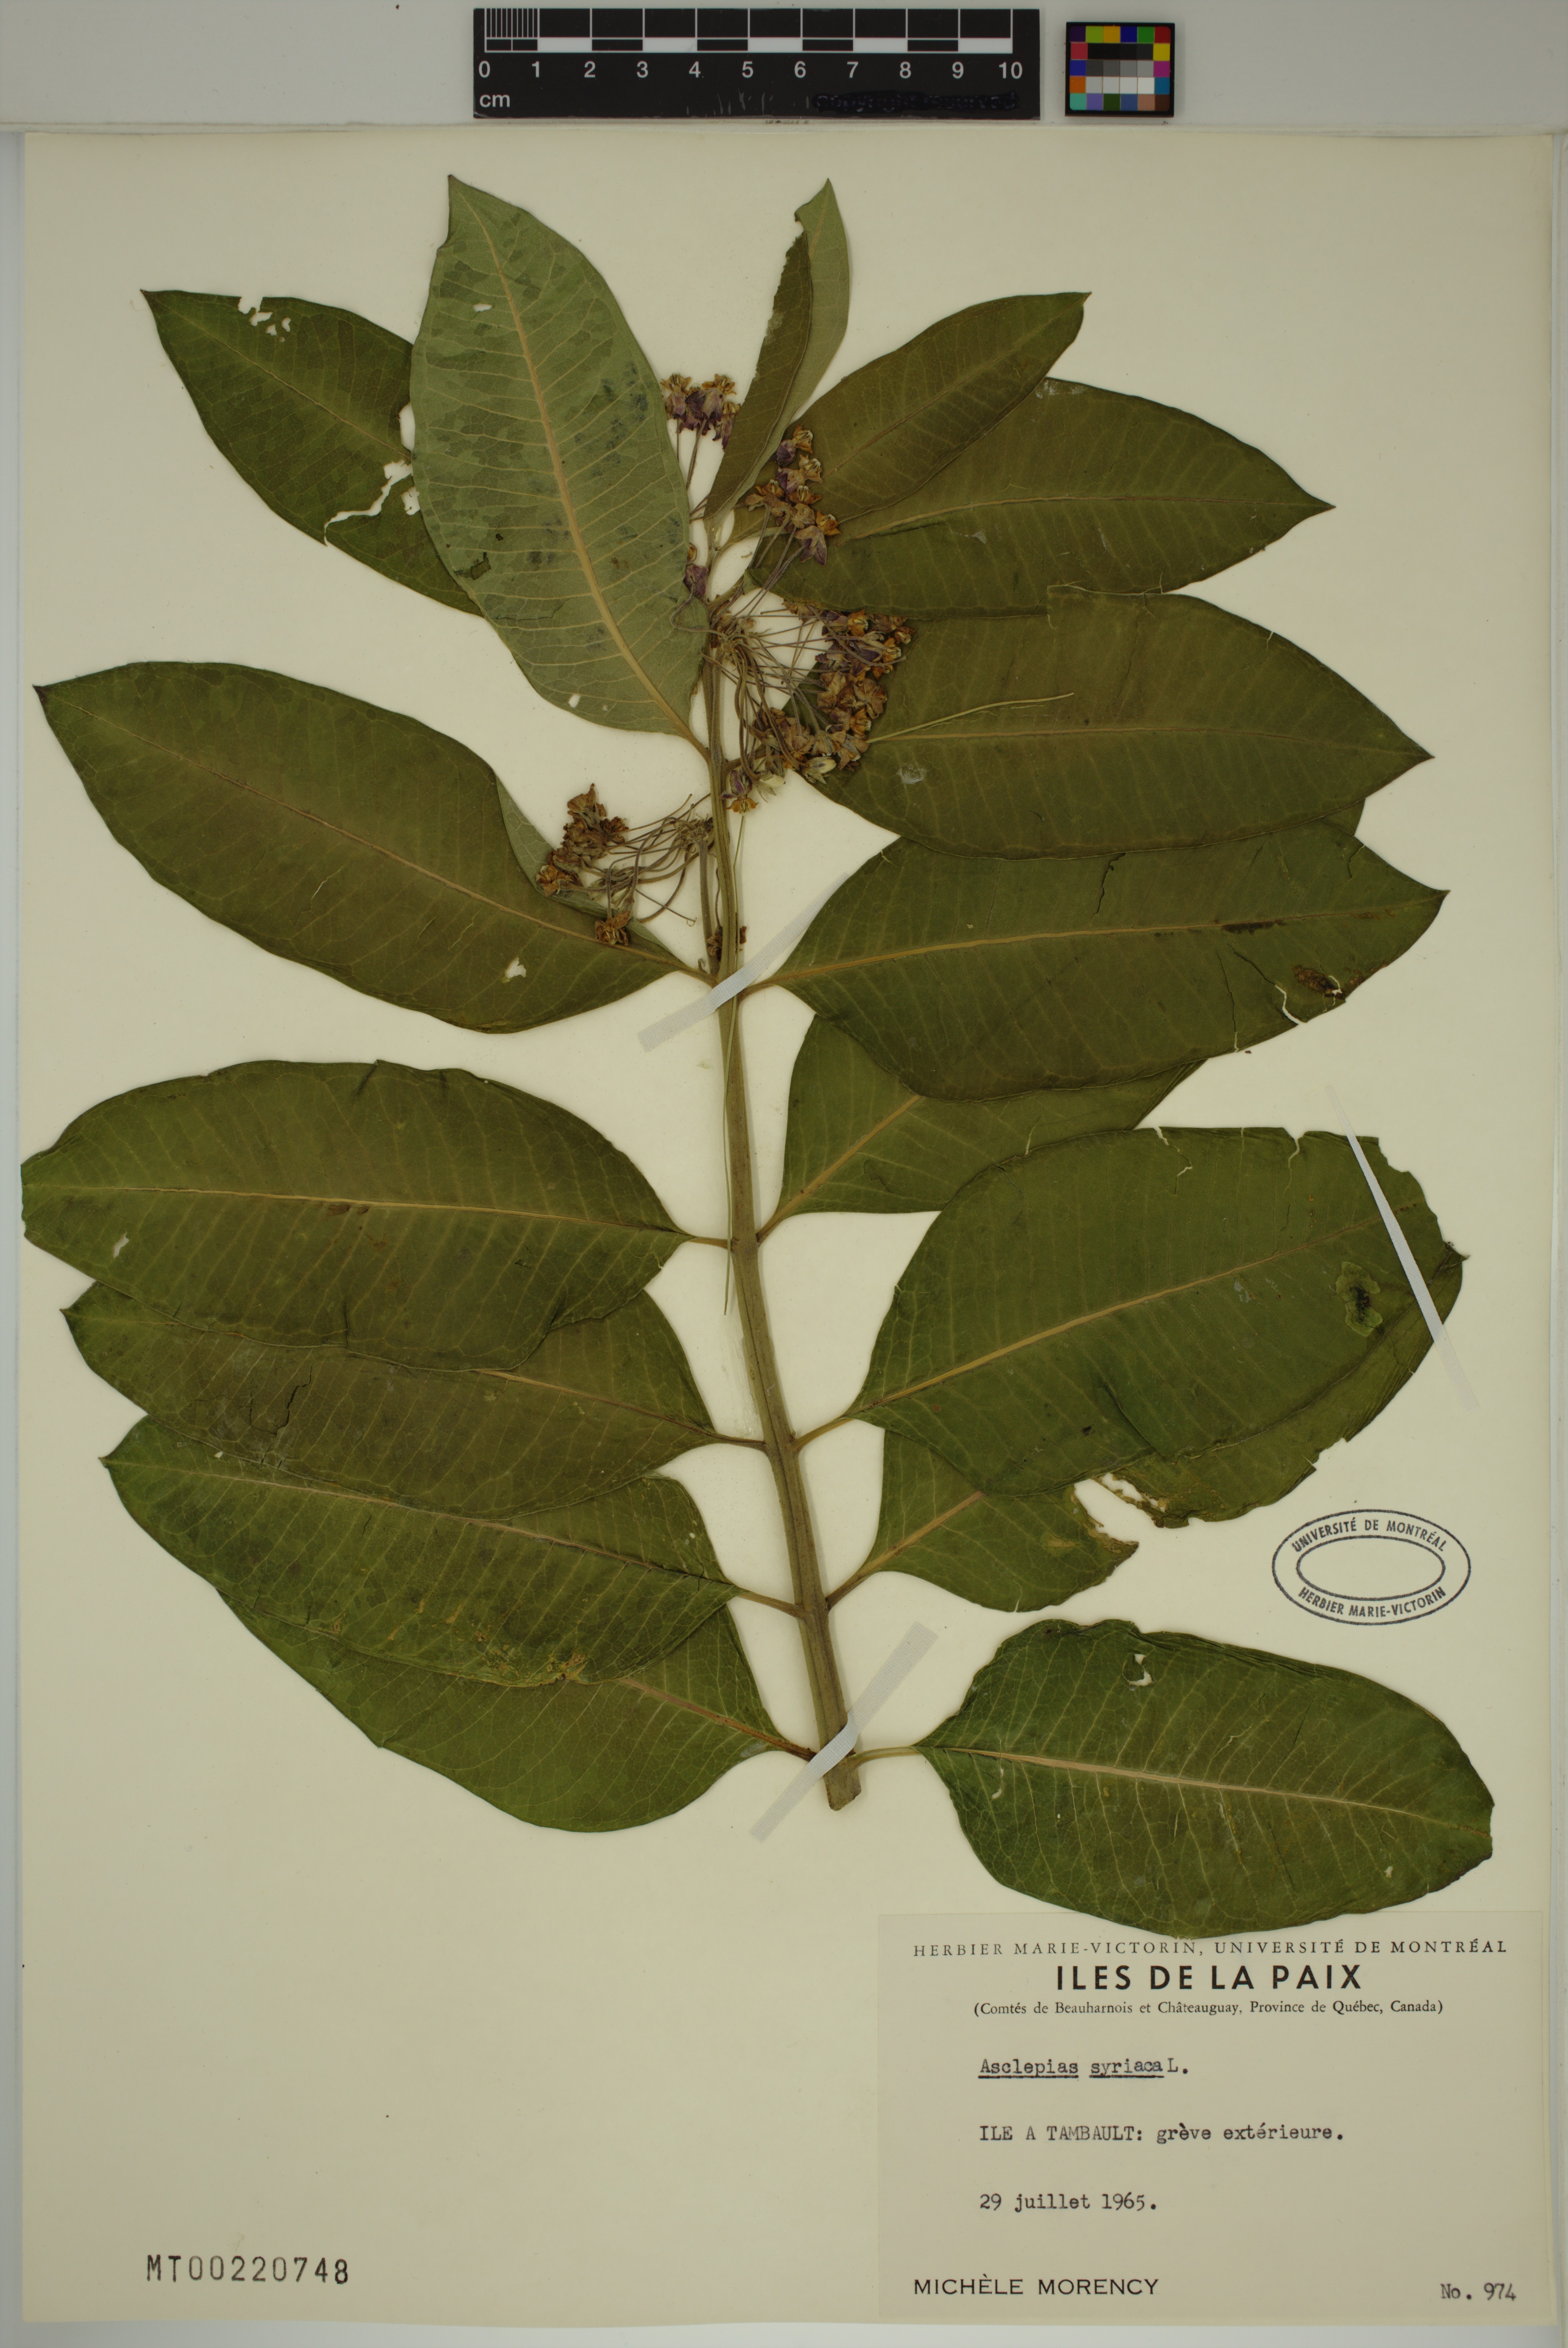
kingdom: Plantae
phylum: Tracheophyta
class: Magnoliopsida
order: Gentianales
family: Apocynaceae
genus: Asclepias
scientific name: Asclepias syriaca
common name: Common milkweed
